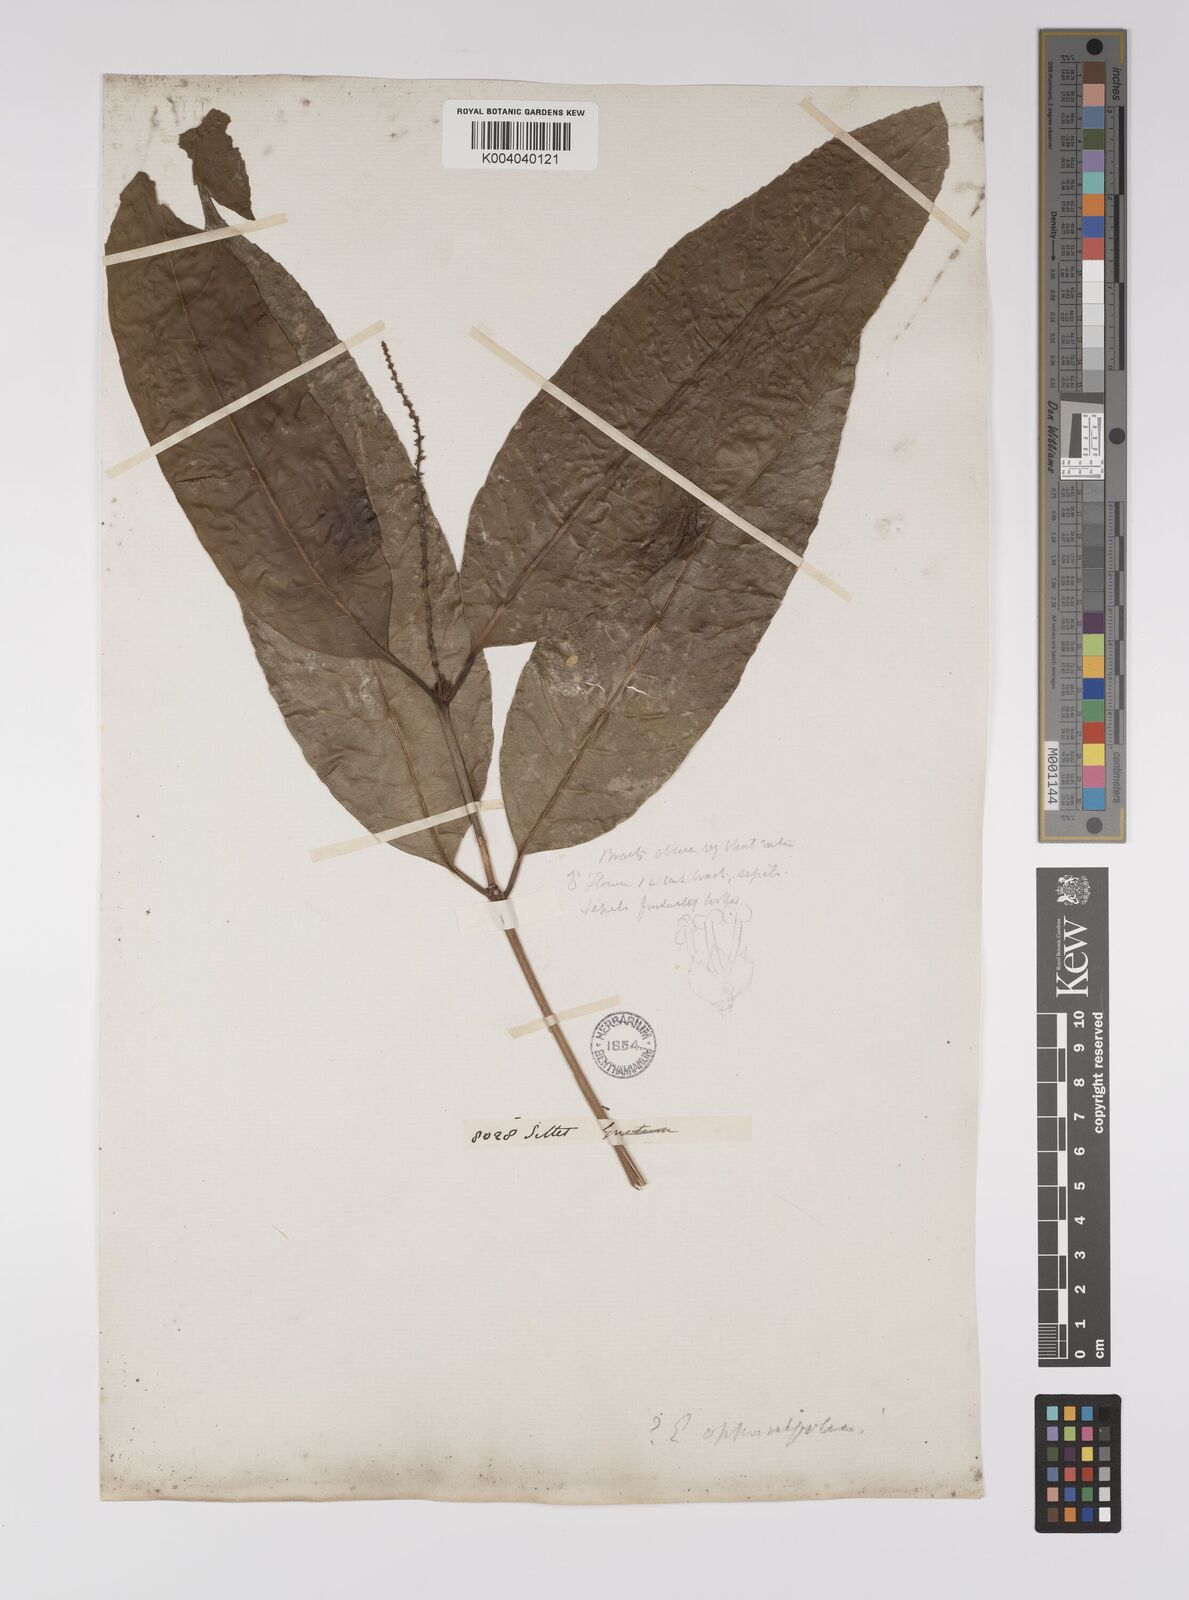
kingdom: Plantae
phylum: Tracheophyta
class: Magnoliopsida
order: Malpighiales
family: Euphorbiaceae
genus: Excoecaria
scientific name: Excoecaria oppositifolia
